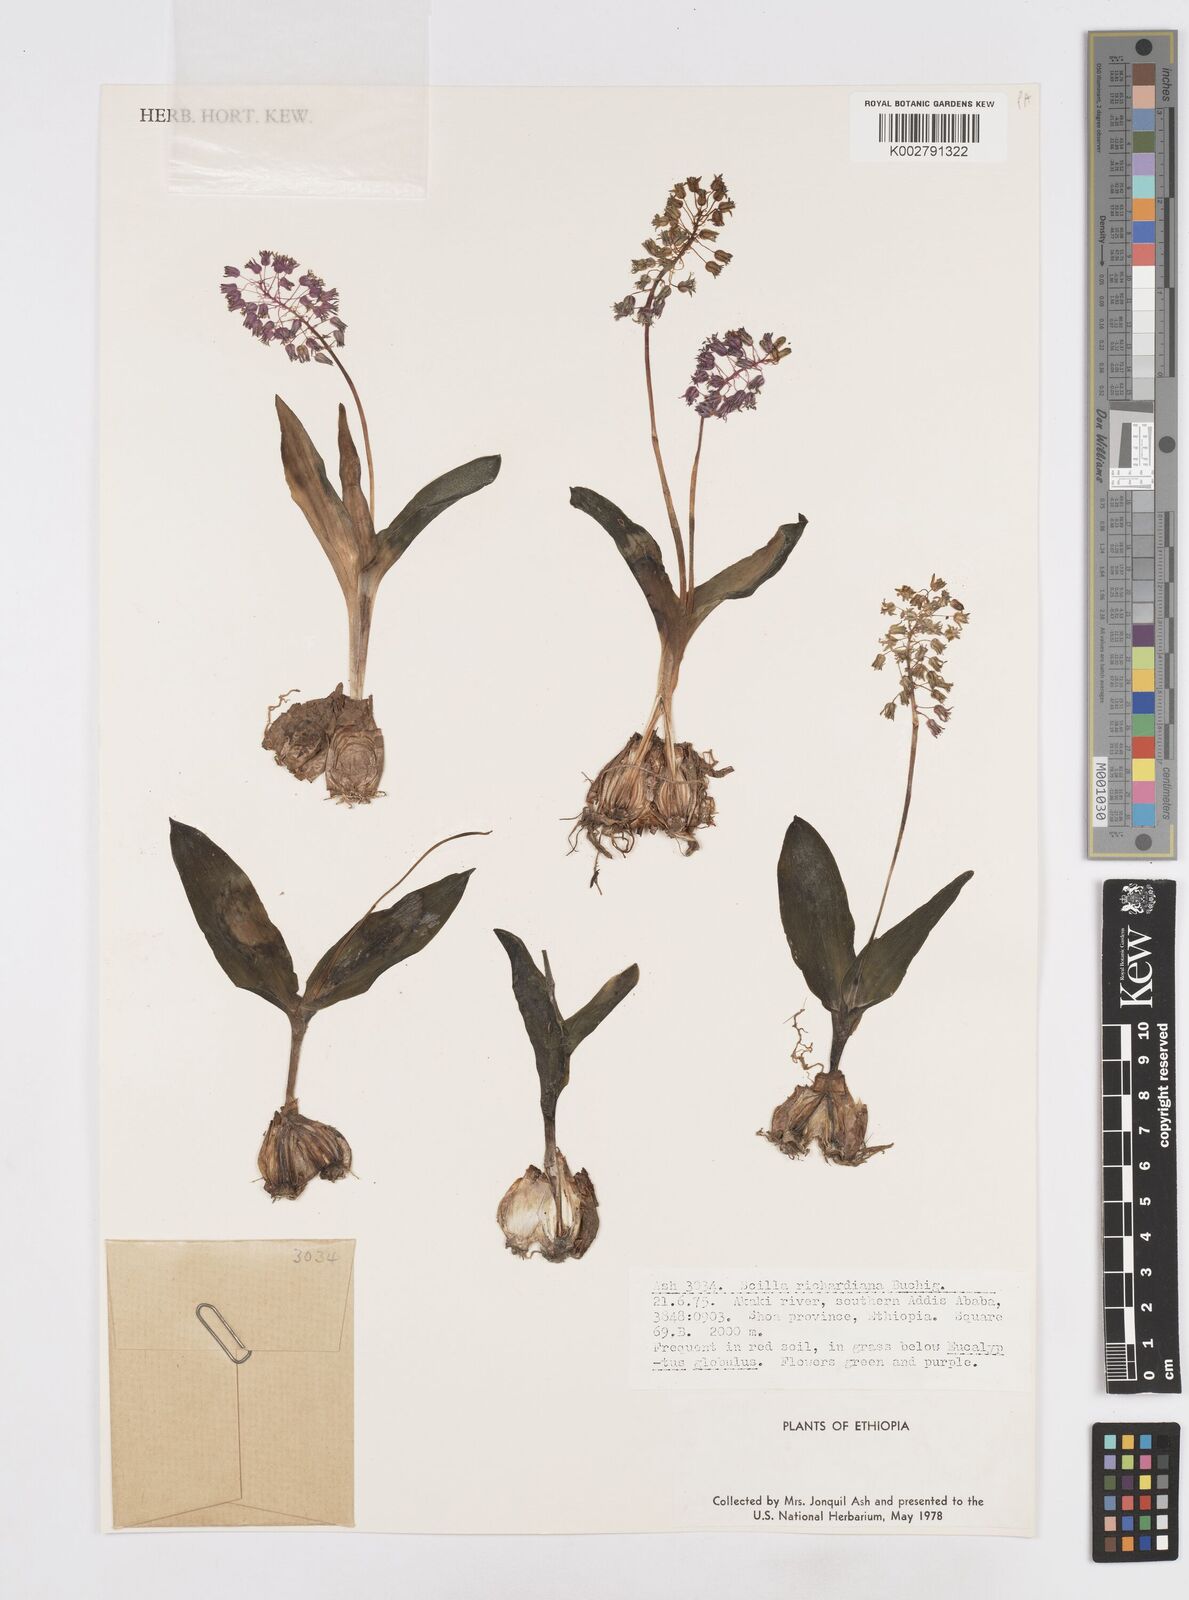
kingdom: Plantae
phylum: Tracheophyta
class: Liliopsida
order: Asparagales
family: Asparagaceae
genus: Ledebouria
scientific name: Ledebouria revoluta
